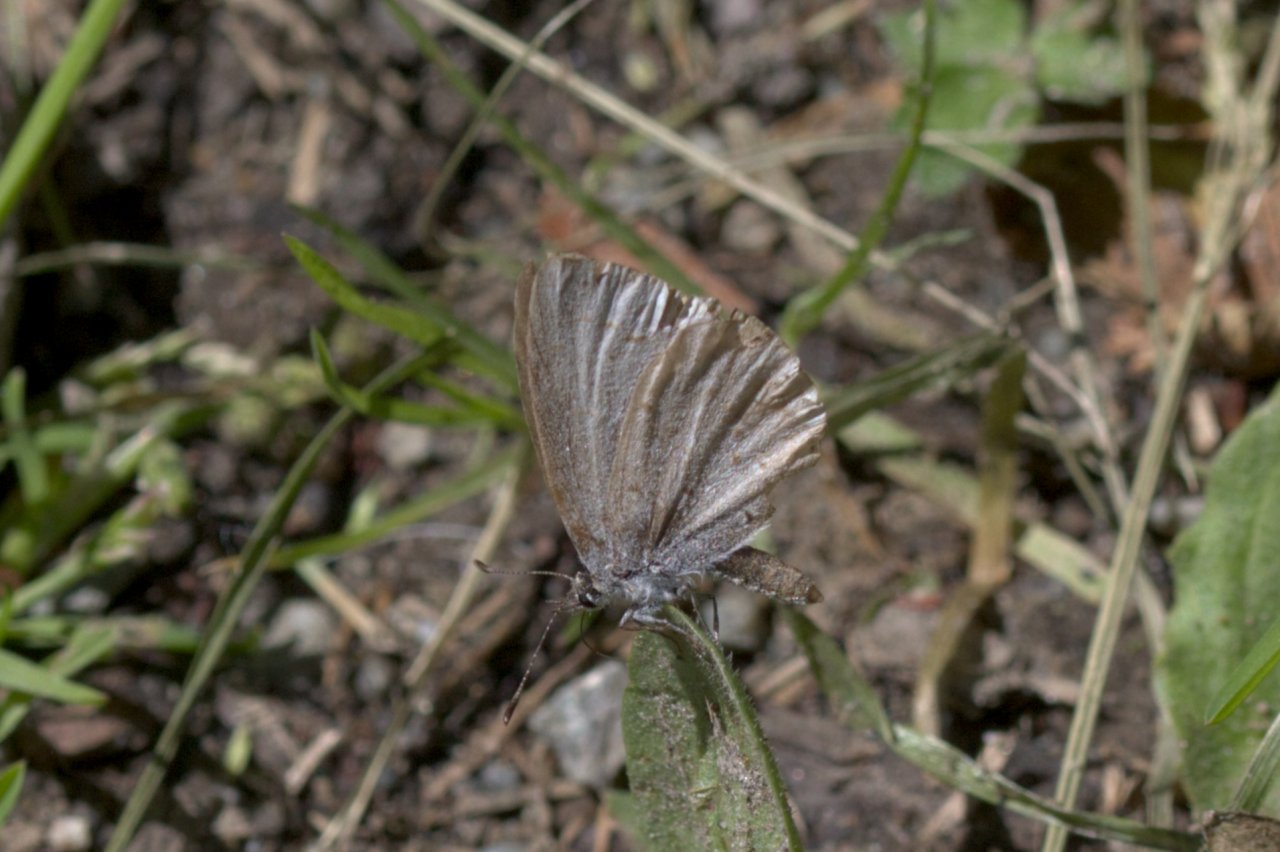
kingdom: Animalia
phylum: Arthropoda
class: Insecta
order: Lepidoptera
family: Lycaenidae
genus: Celastrina
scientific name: Celastrina ladon
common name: Echo Azure
